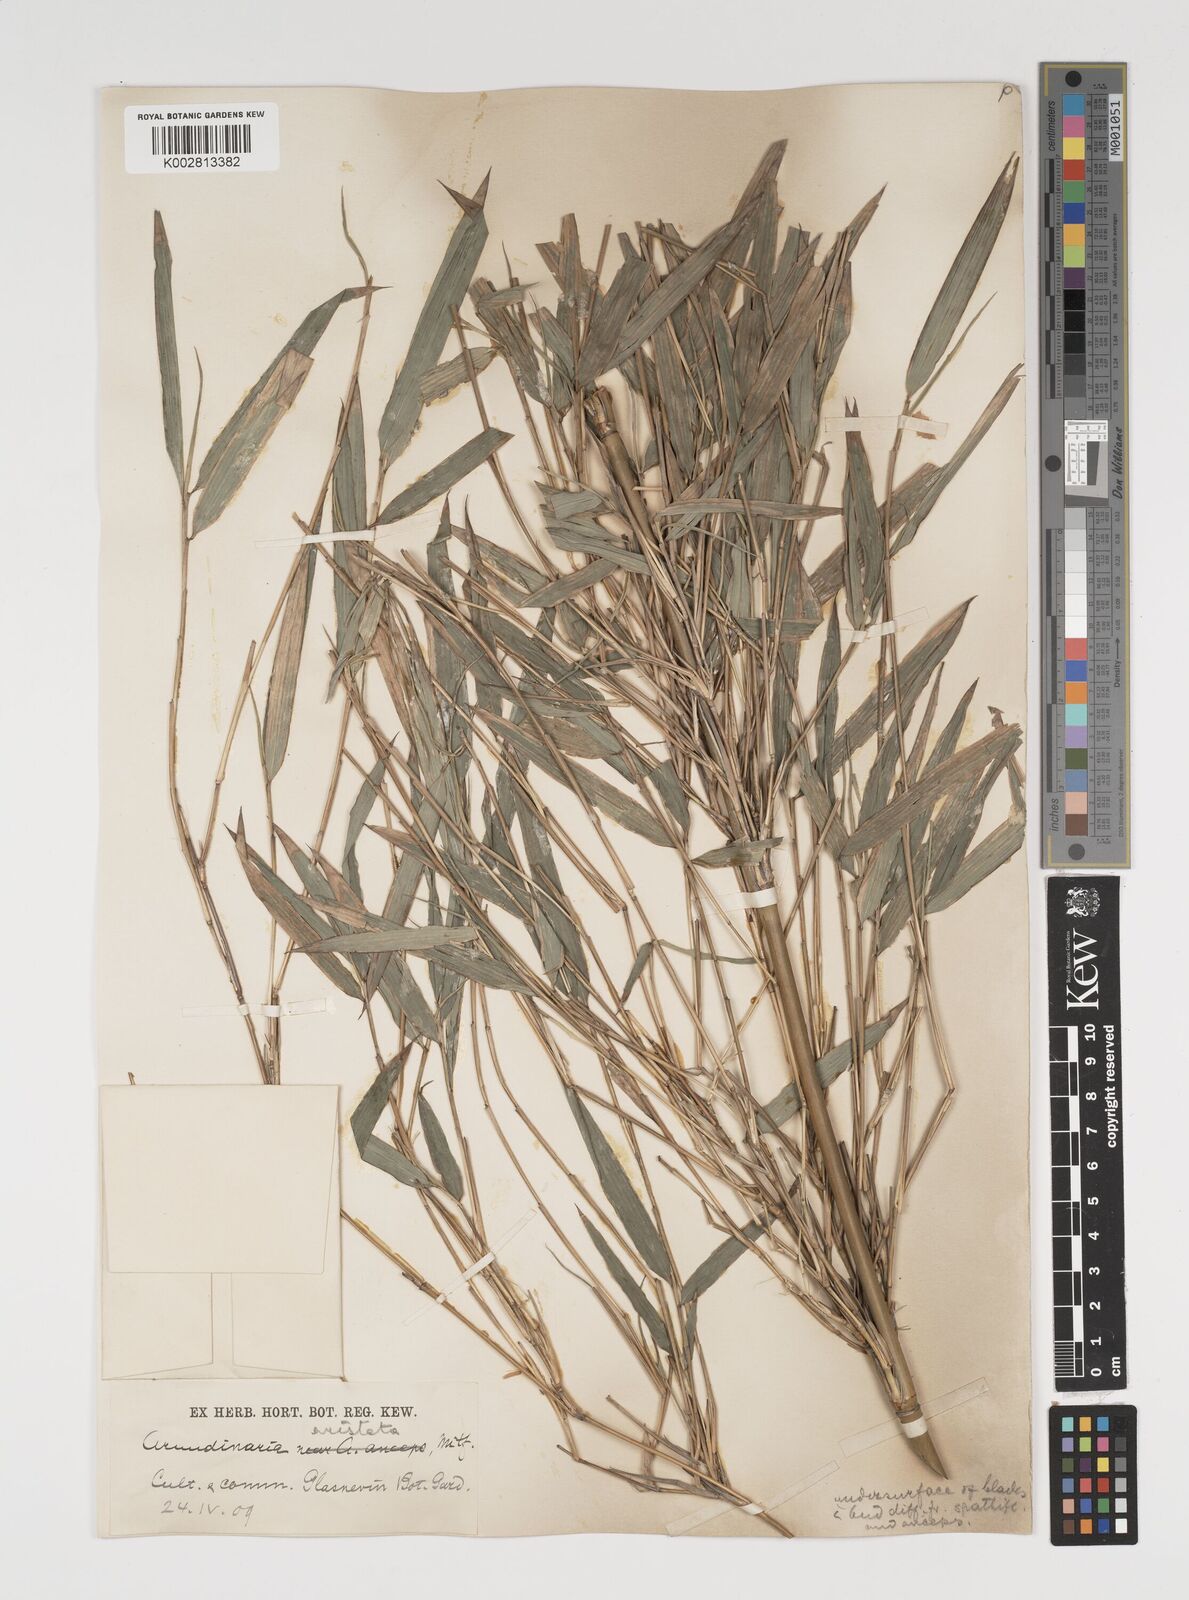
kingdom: Plantae
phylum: Tracheophyta
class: Liliopsida
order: Poales
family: Poaceae
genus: Thamnocalamus
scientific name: Thamnocalamus spathiflorus
